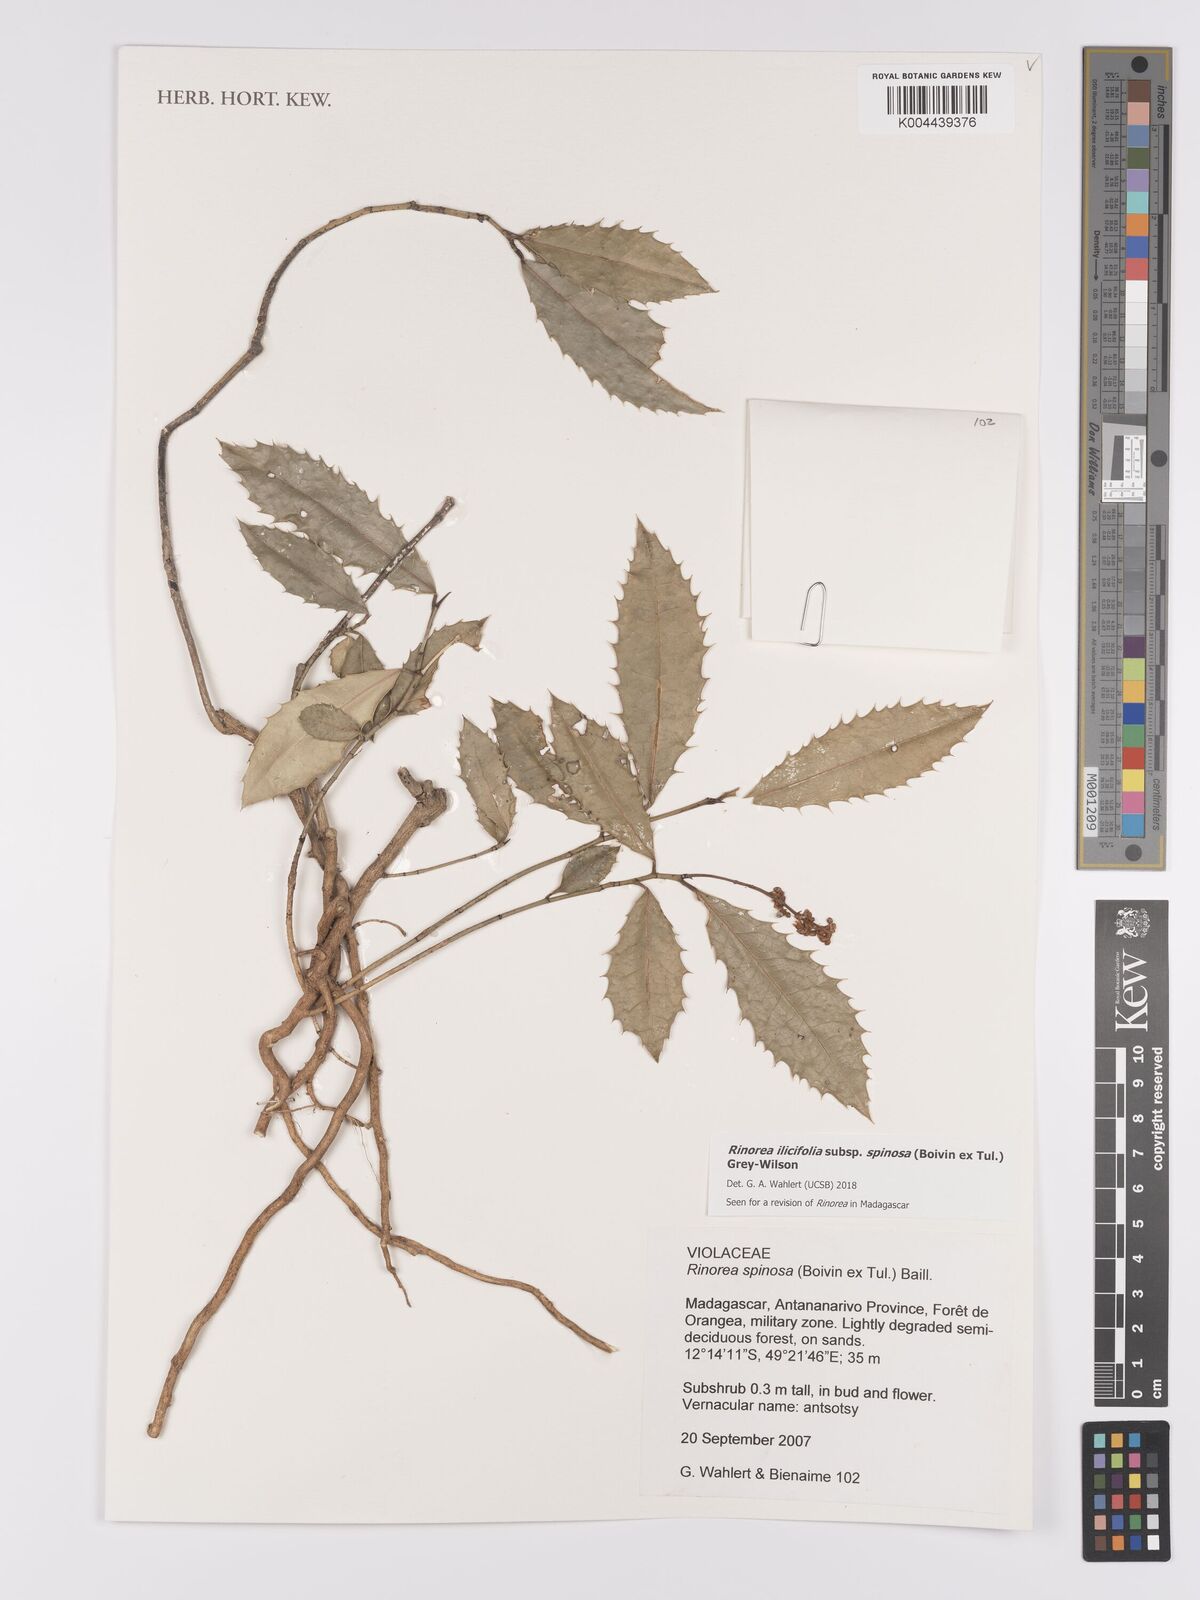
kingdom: Plantae
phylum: Tracheophyta
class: Magnoliopsida
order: Malpighiales
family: Violaceae
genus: Rinorea
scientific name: Rinorea spinosa
